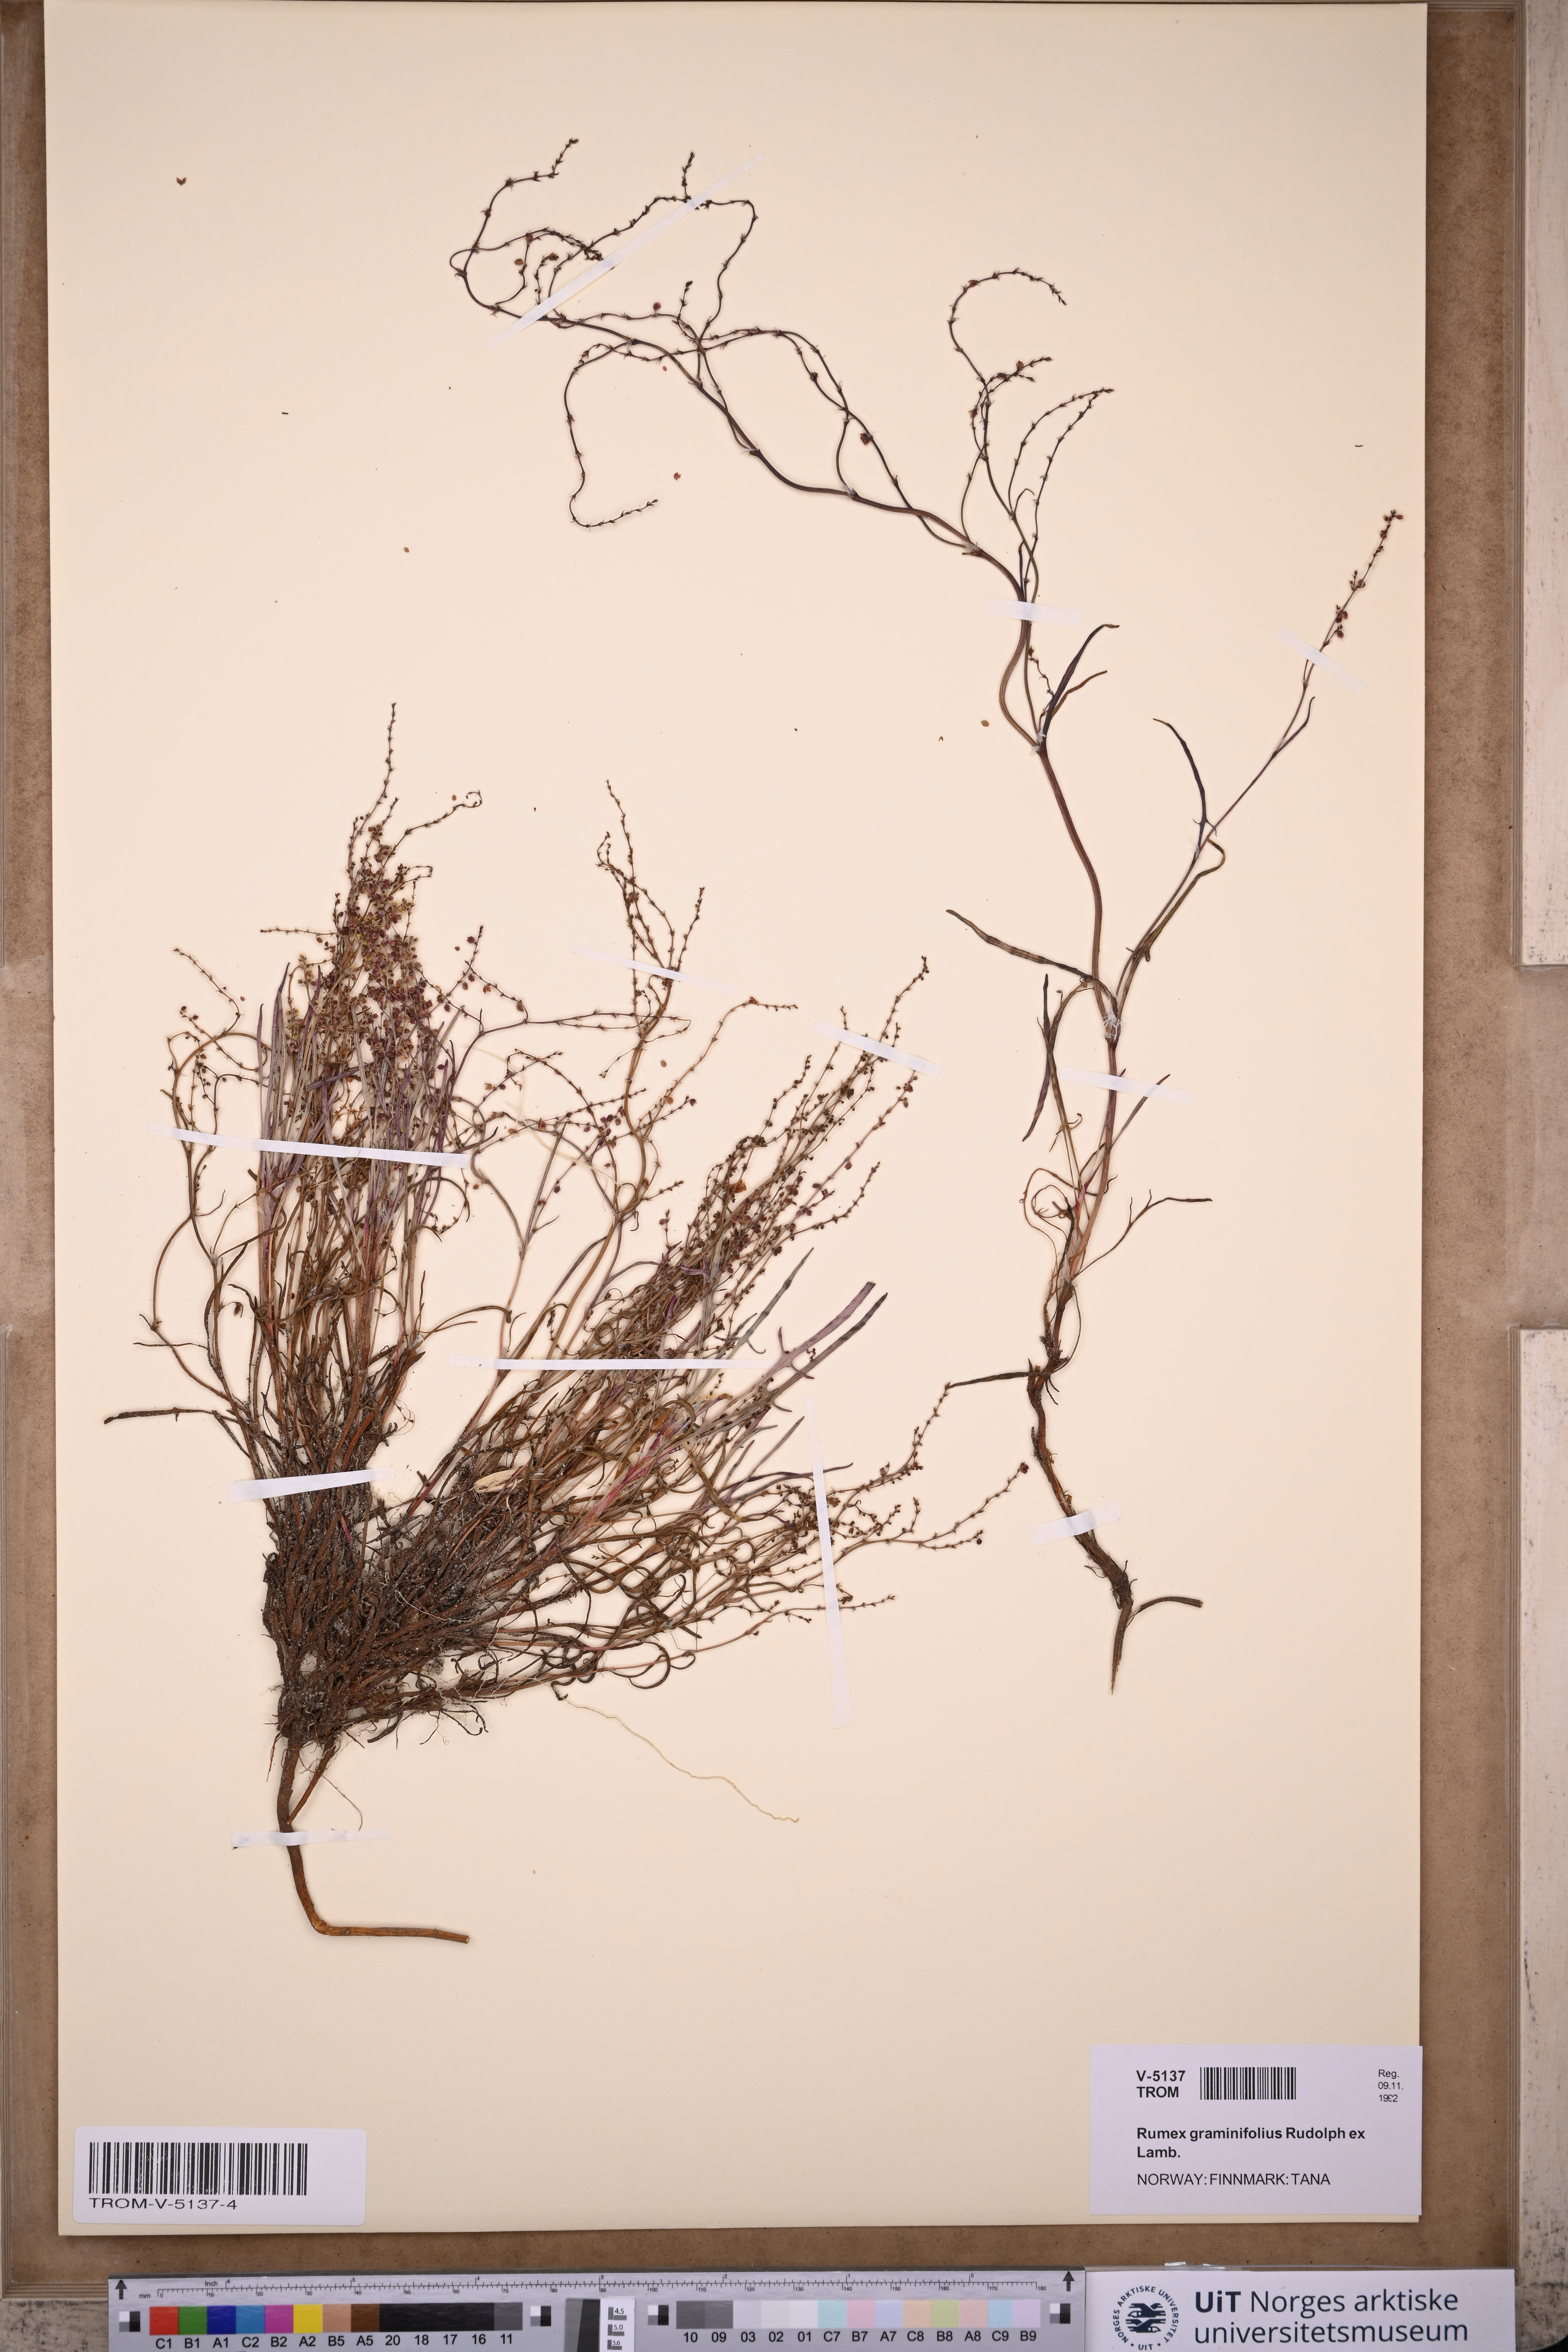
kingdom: Plantae
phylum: Tracheophyta
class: Magnoliopsida
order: Caryophyllales
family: Polygonaceae
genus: Rumex
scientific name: Rumex graminifolius
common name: Grass-leaved sorrel
